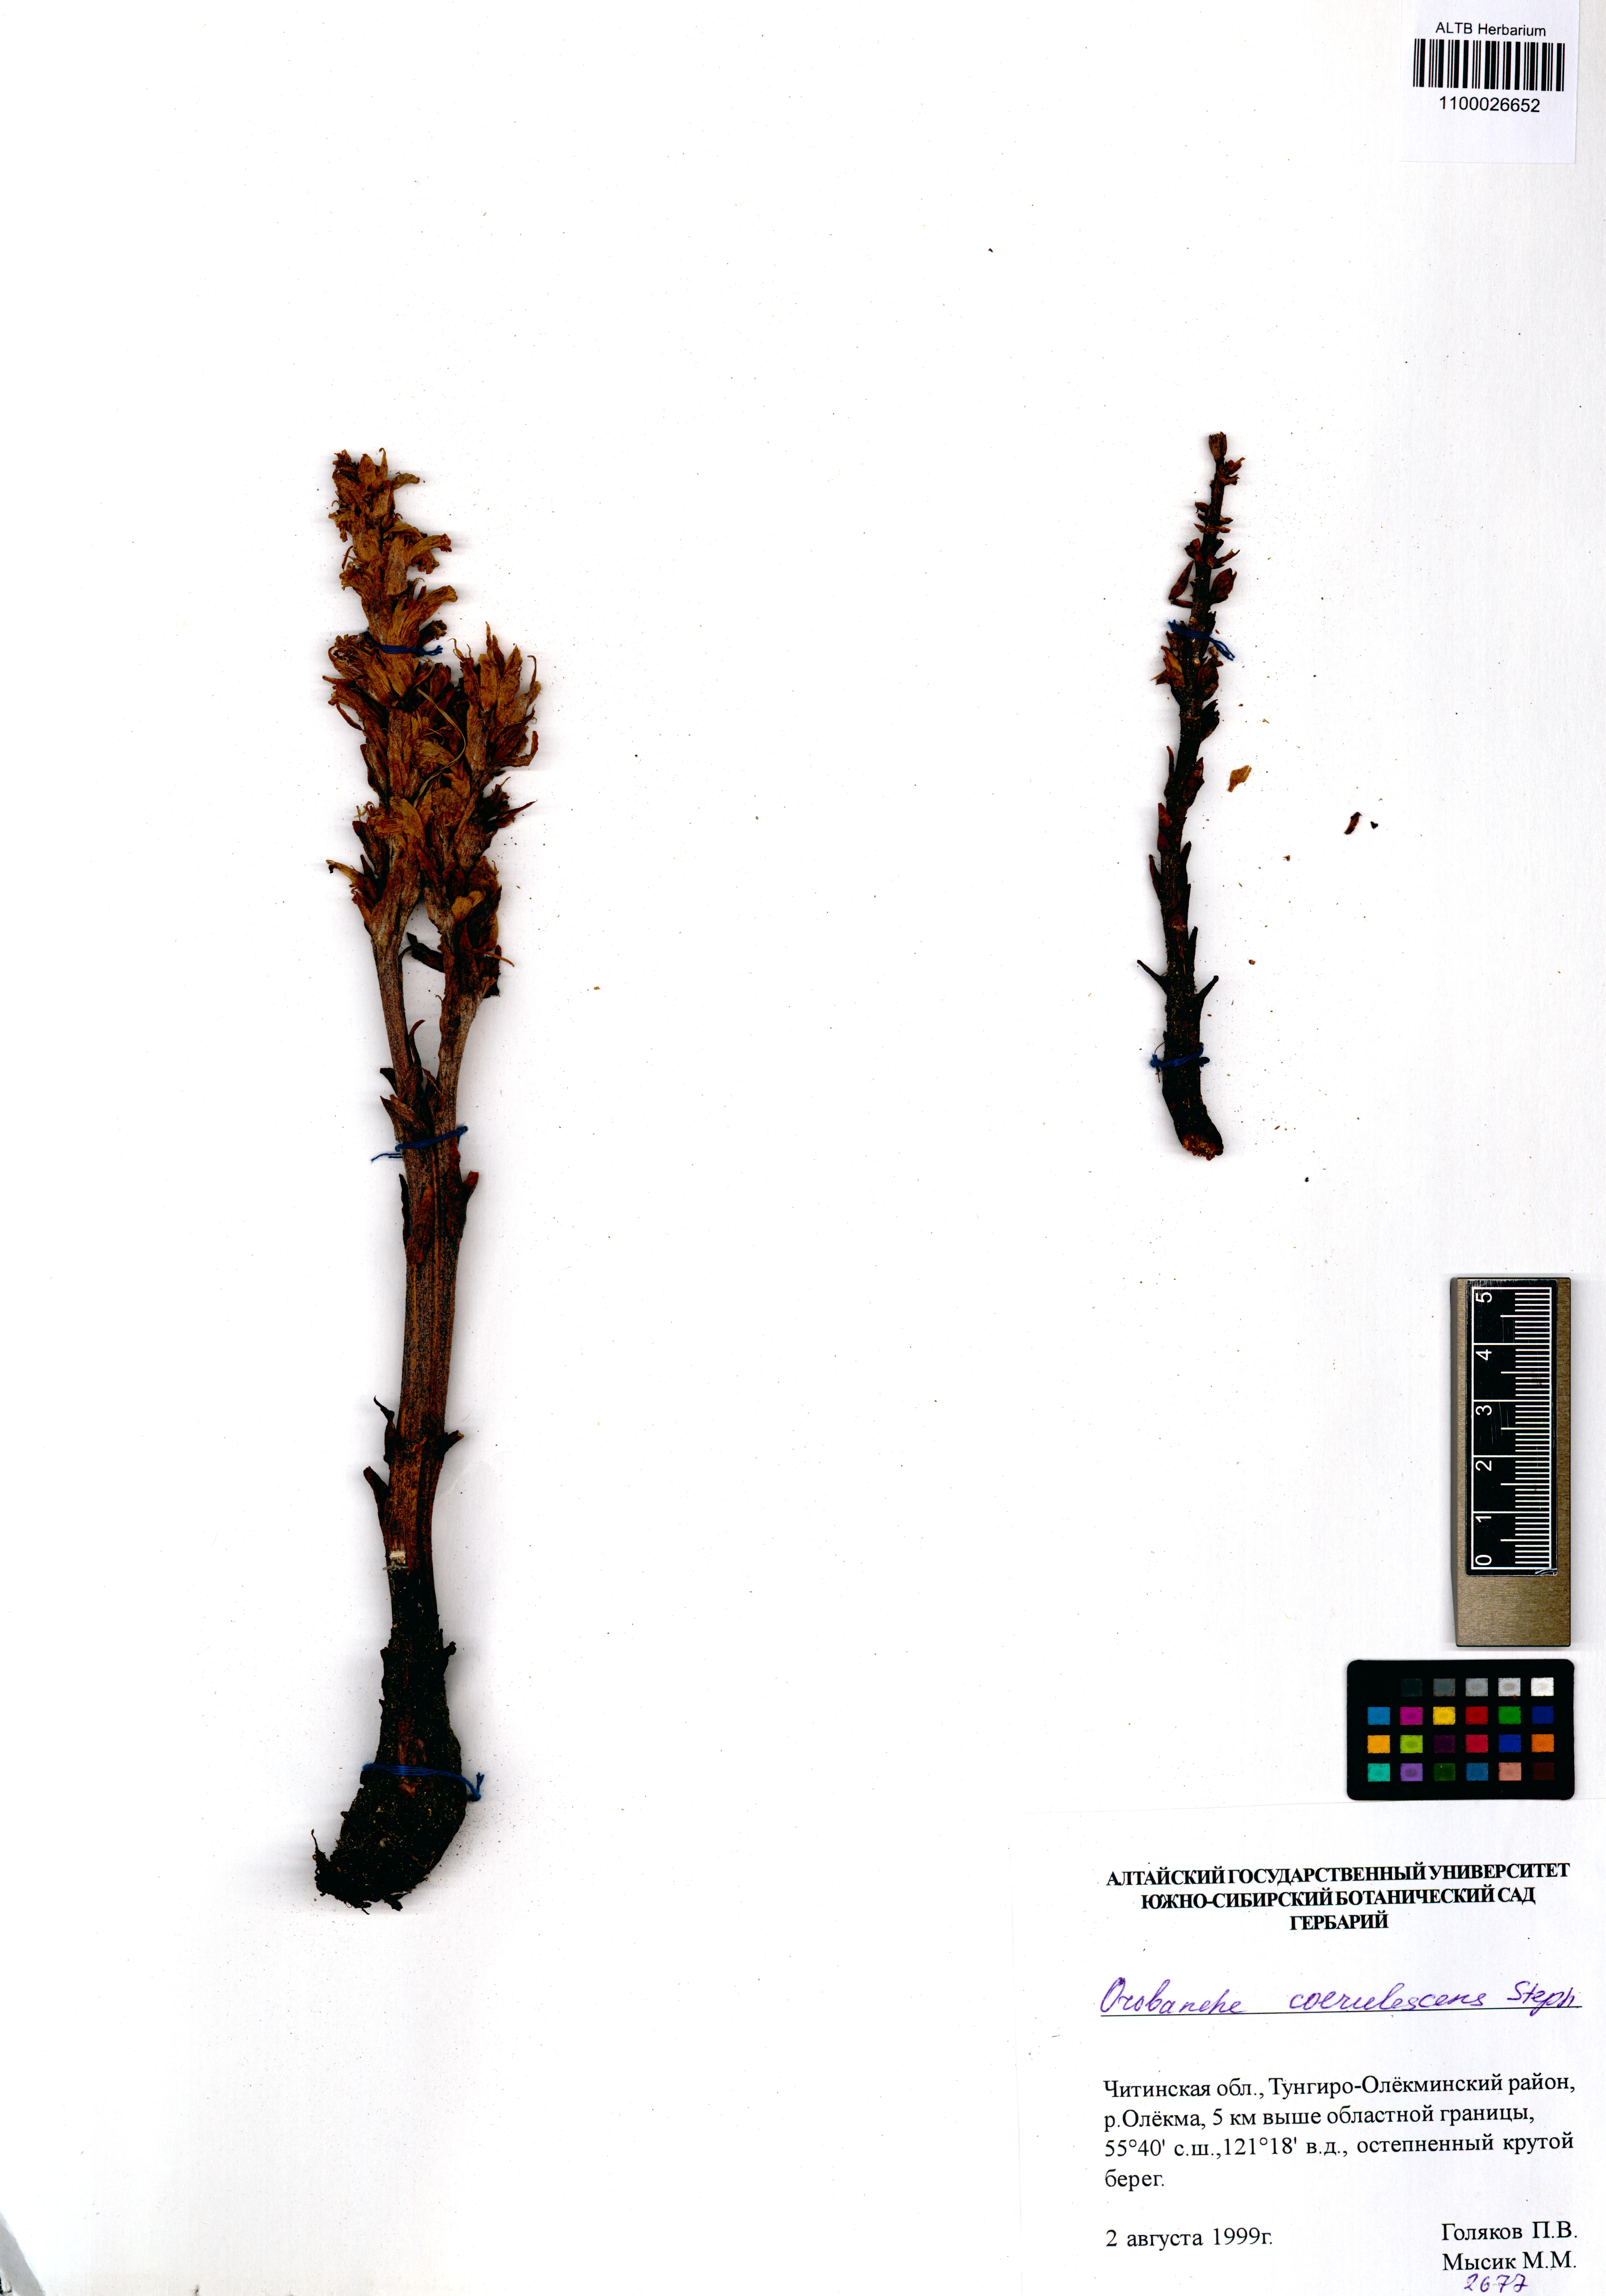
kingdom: Plantae
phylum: Tracheophyta
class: Magnoliopsida
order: Lamiales
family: Orobanchaceae
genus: Orobanche
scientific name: Orobanche coerulescens
